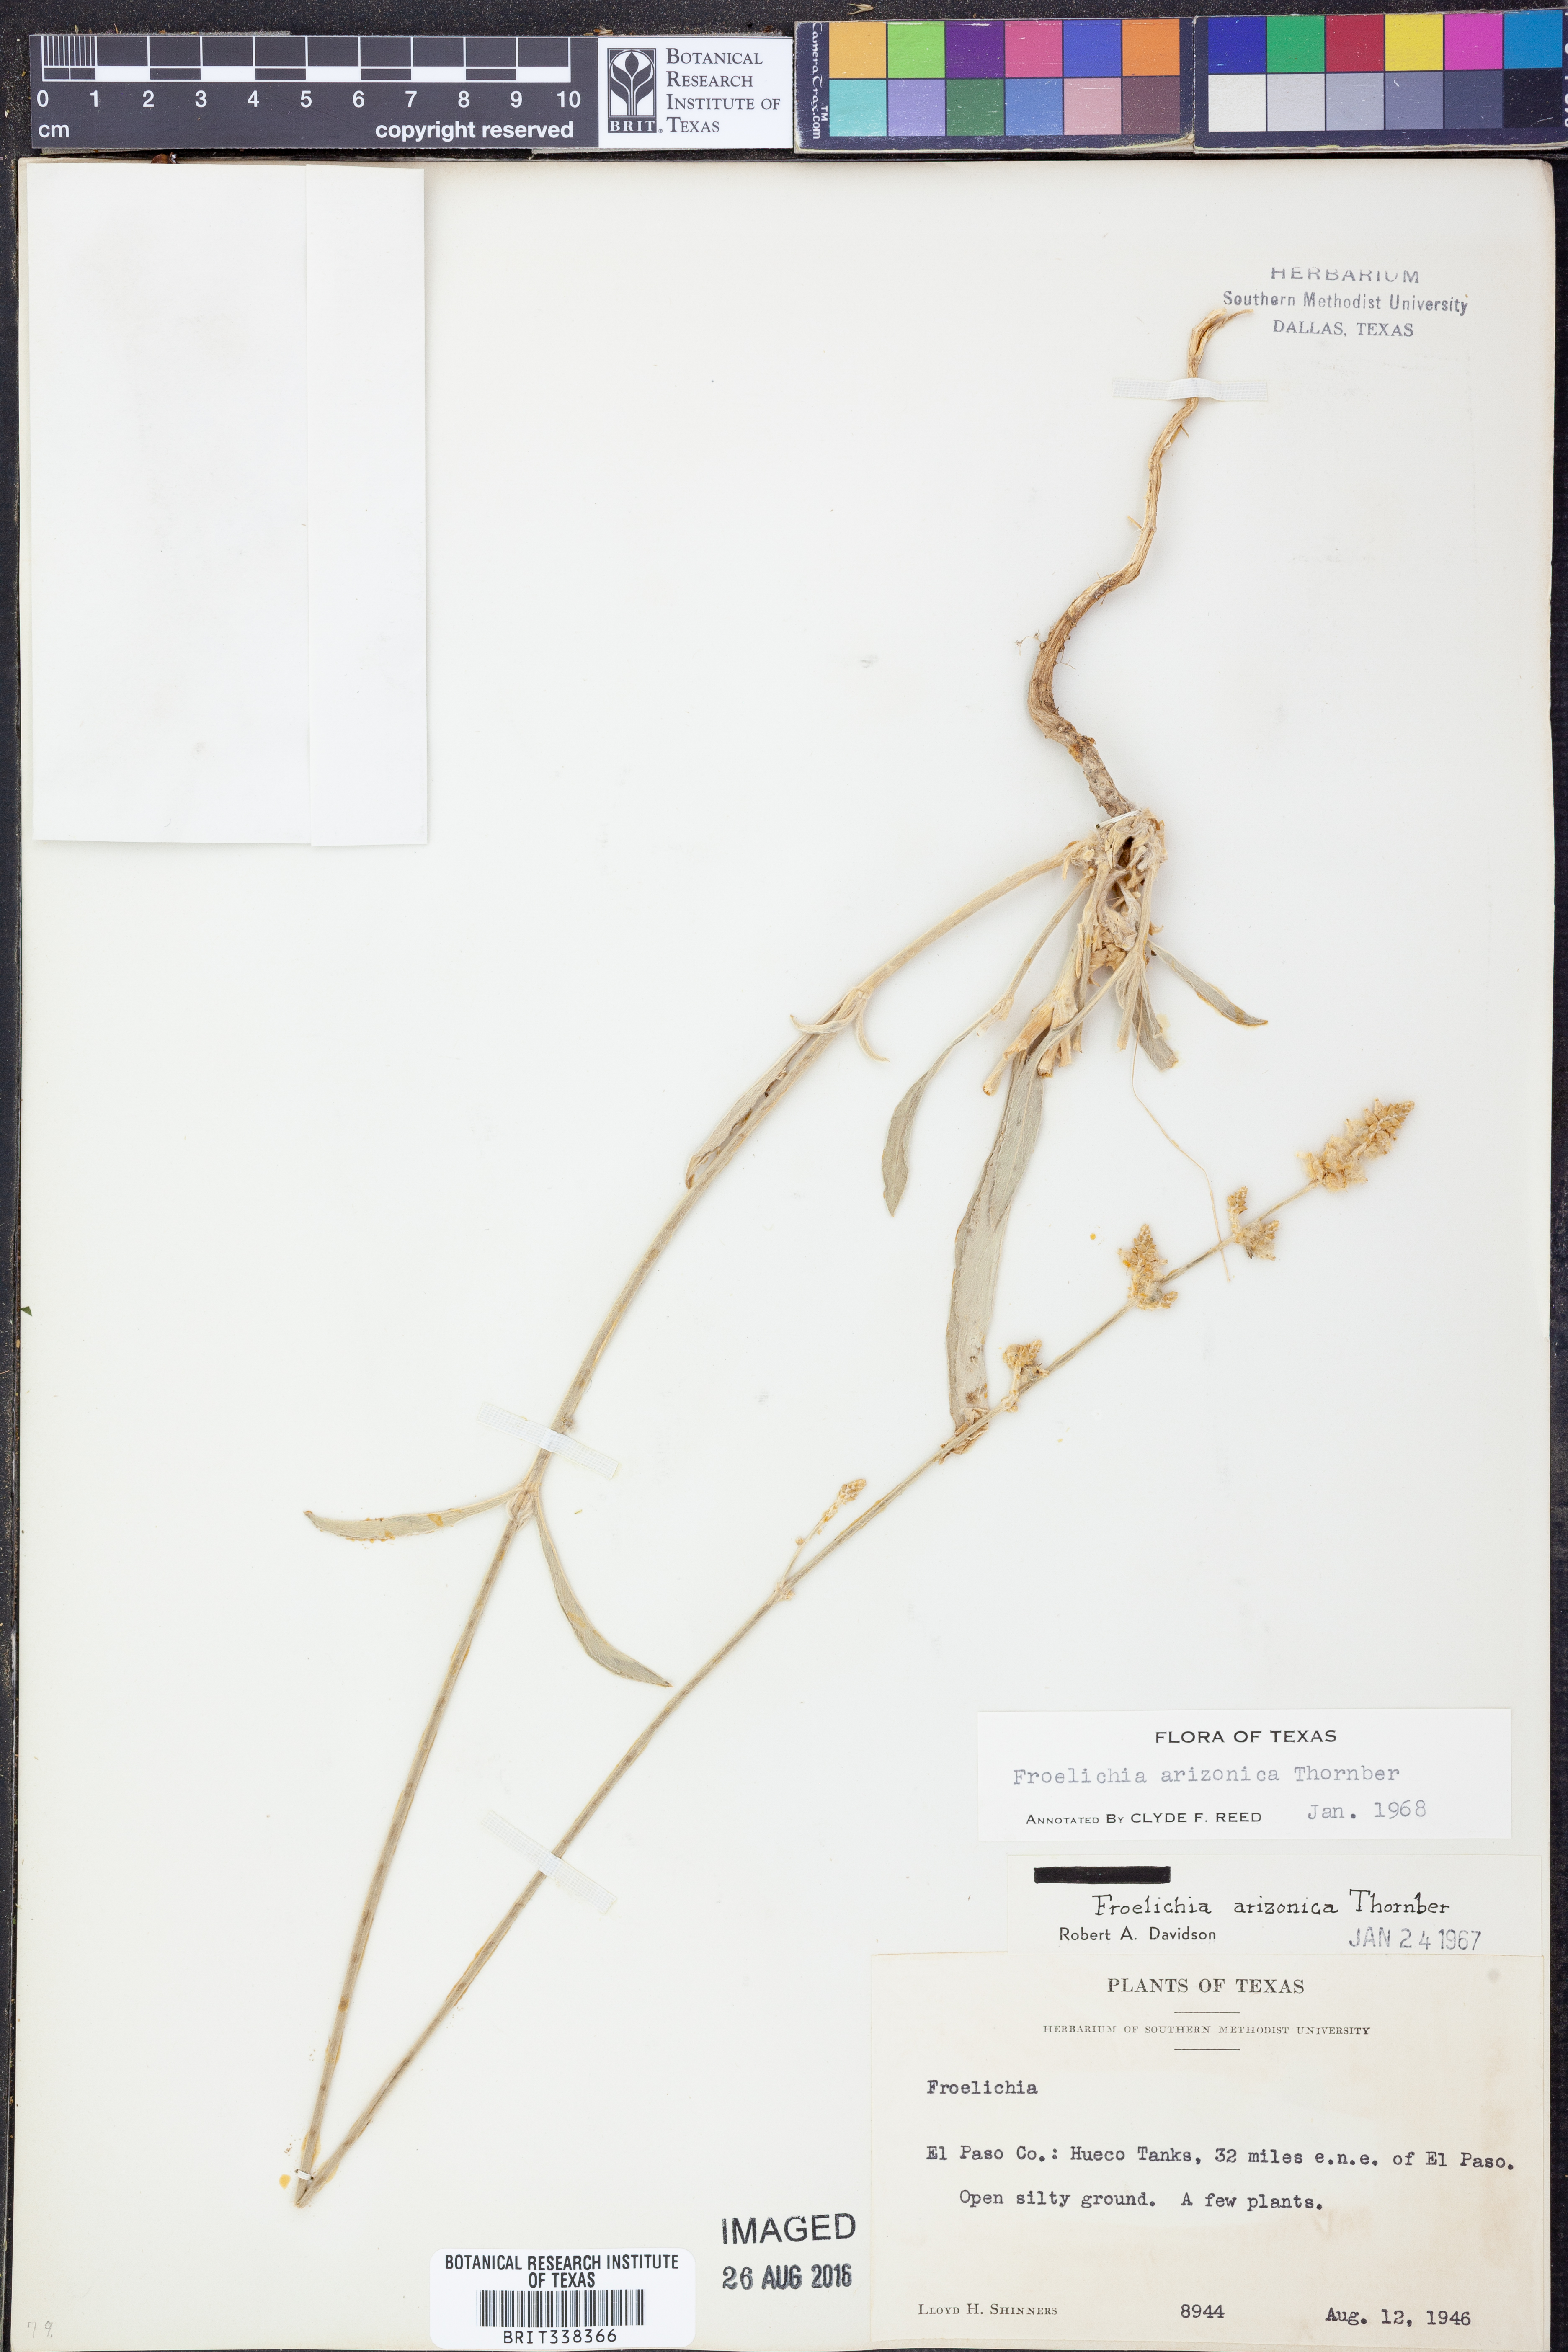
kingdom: Plantae
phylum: Tracheophyta
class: Magnoliopsida
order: Caryophyllales
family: Amaranthaceae
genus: Froelichia
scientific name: Froelichia arizonica
